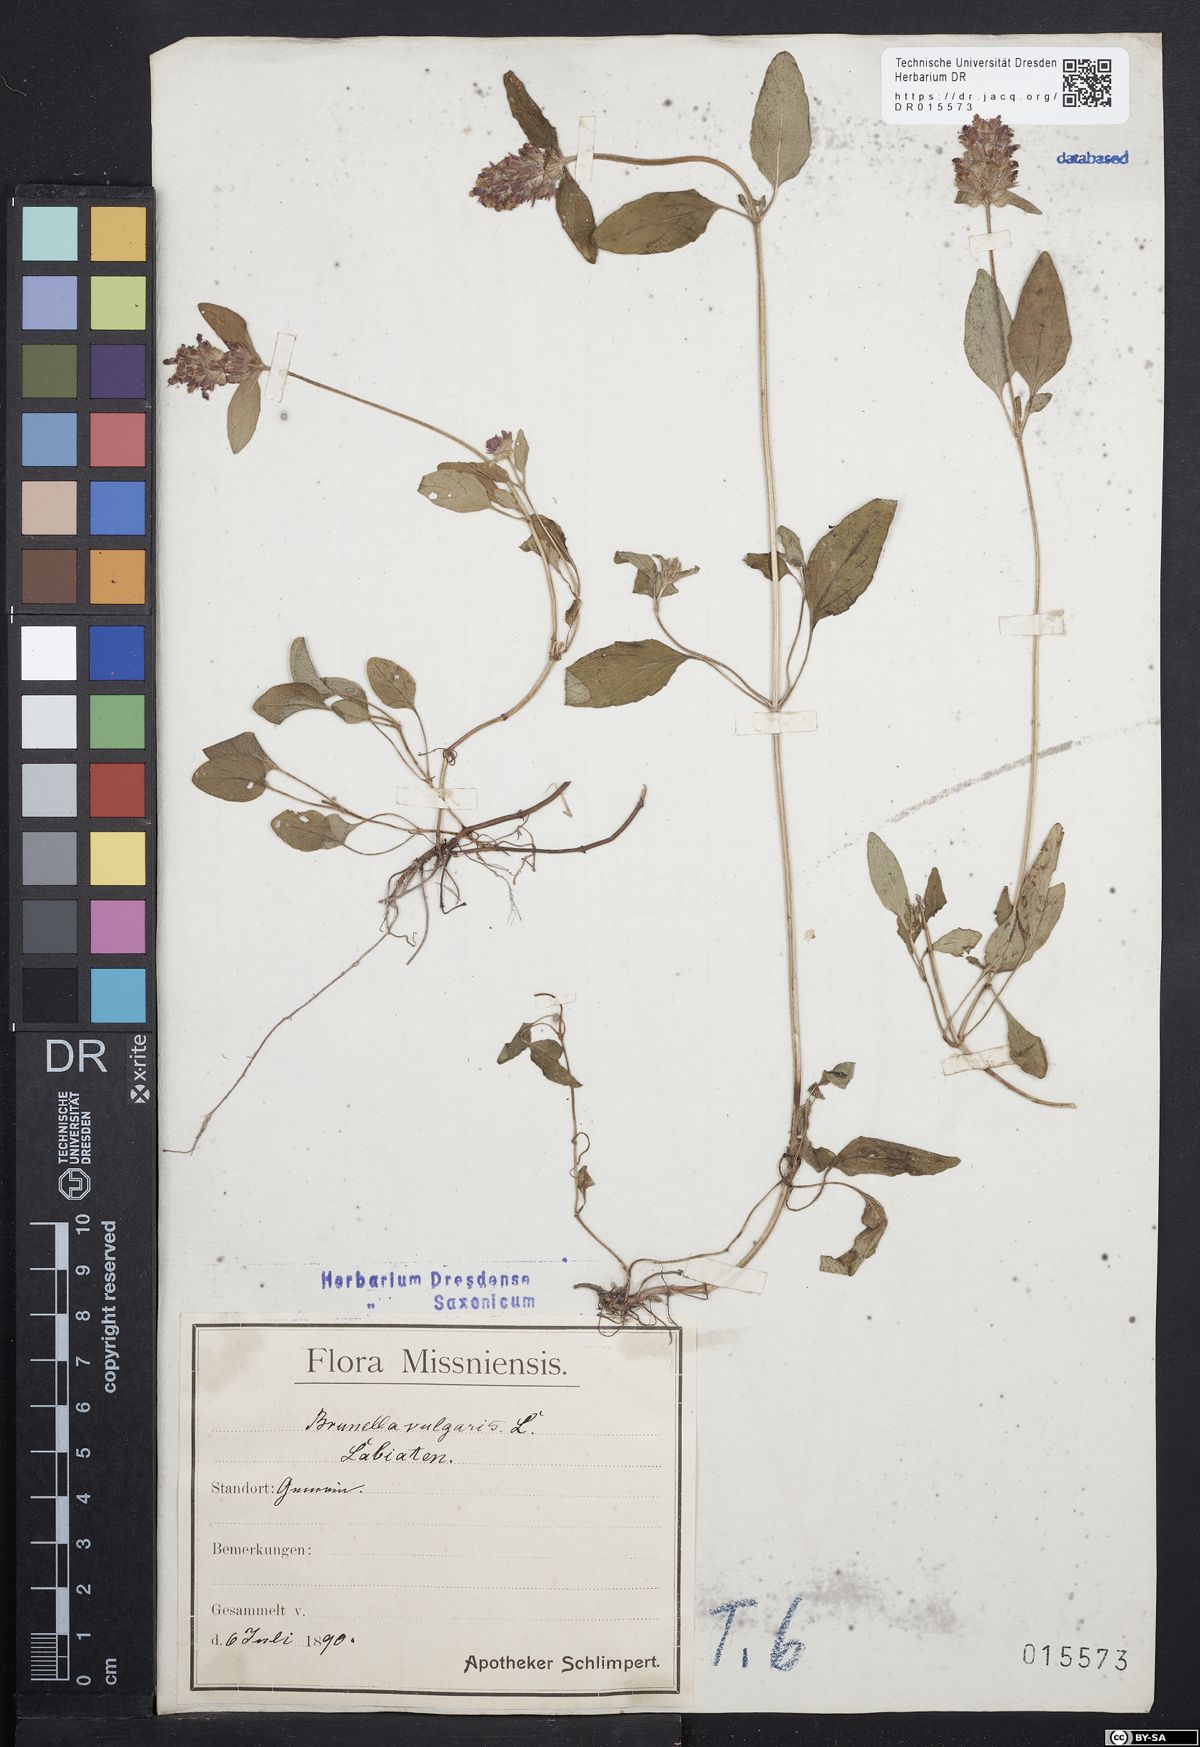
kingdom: Plantae
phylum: Tracheophyta
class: Magnoliopsida
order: Lamiales
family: Lamiaceae
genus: Prunella
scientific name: Prunella vulgaris
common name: Heal-all
